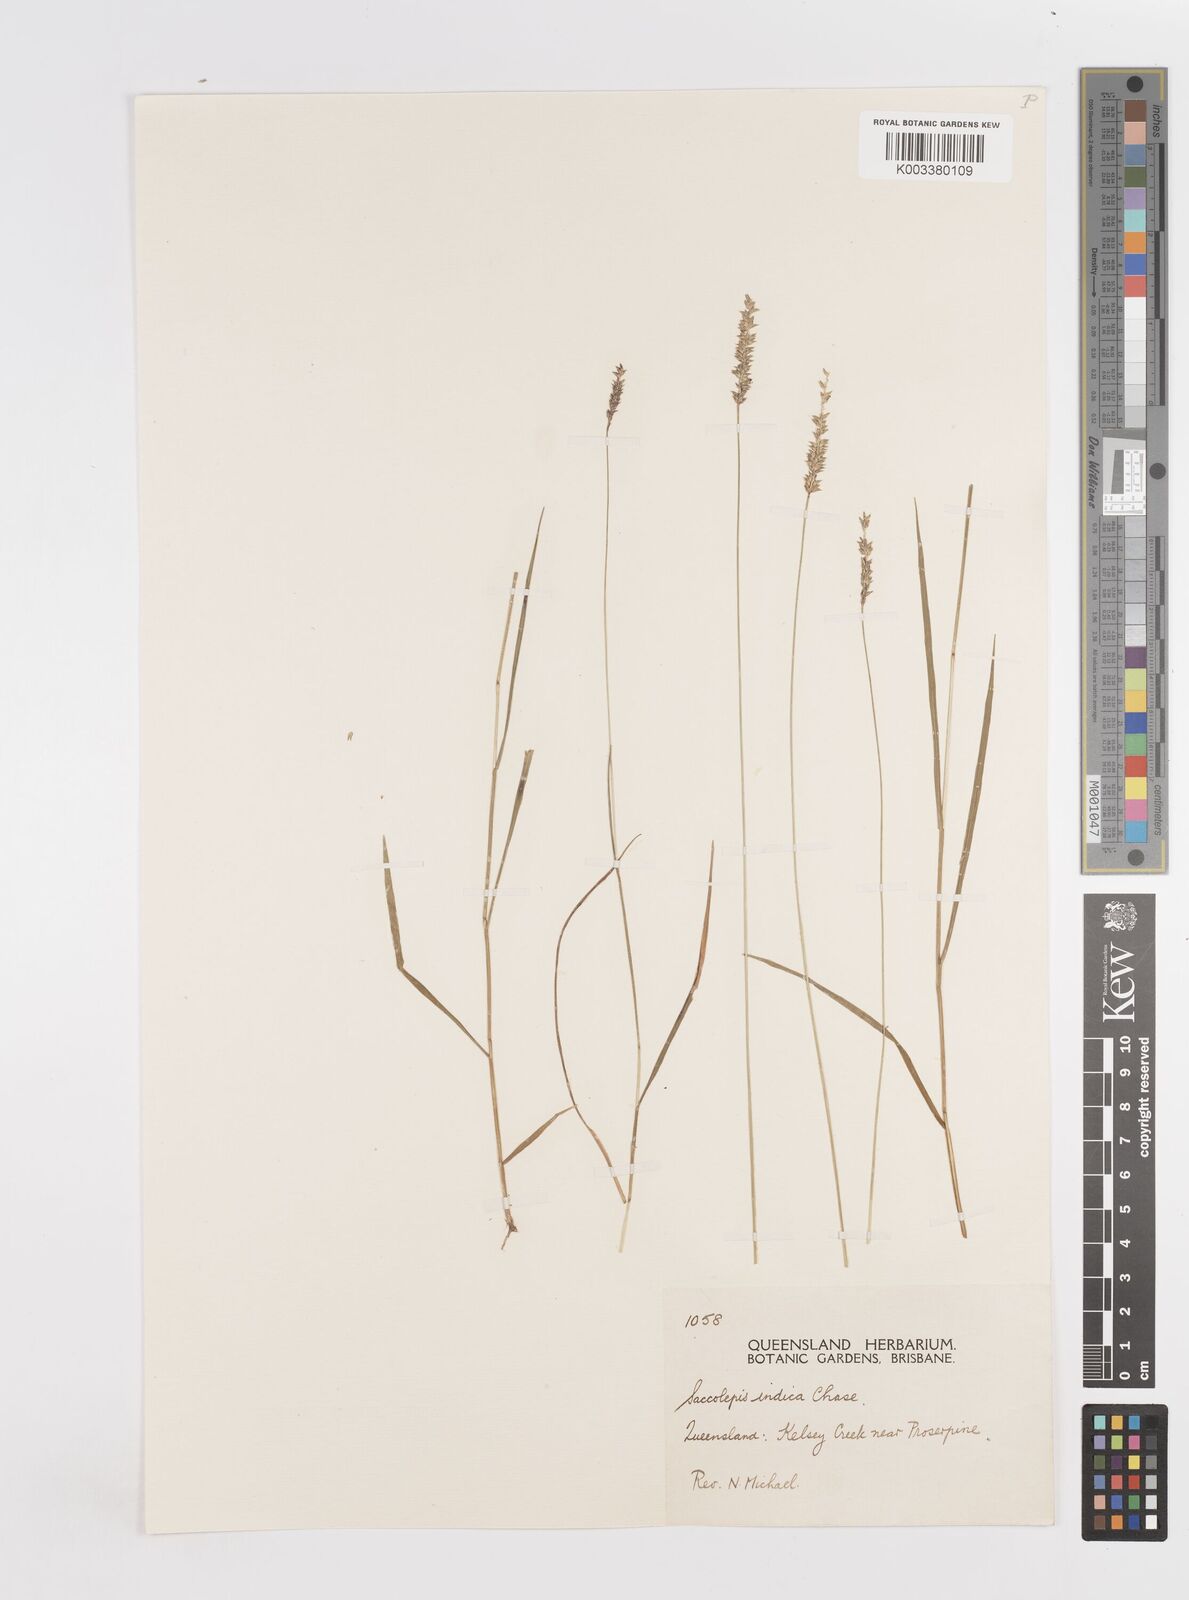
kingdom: Plantae
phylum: Tracheophyta
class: Liliopsida
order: Poales
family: Poaceae
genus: Sacciolepis
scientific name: Sacciolepis indica
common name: Glenwoodgrass
